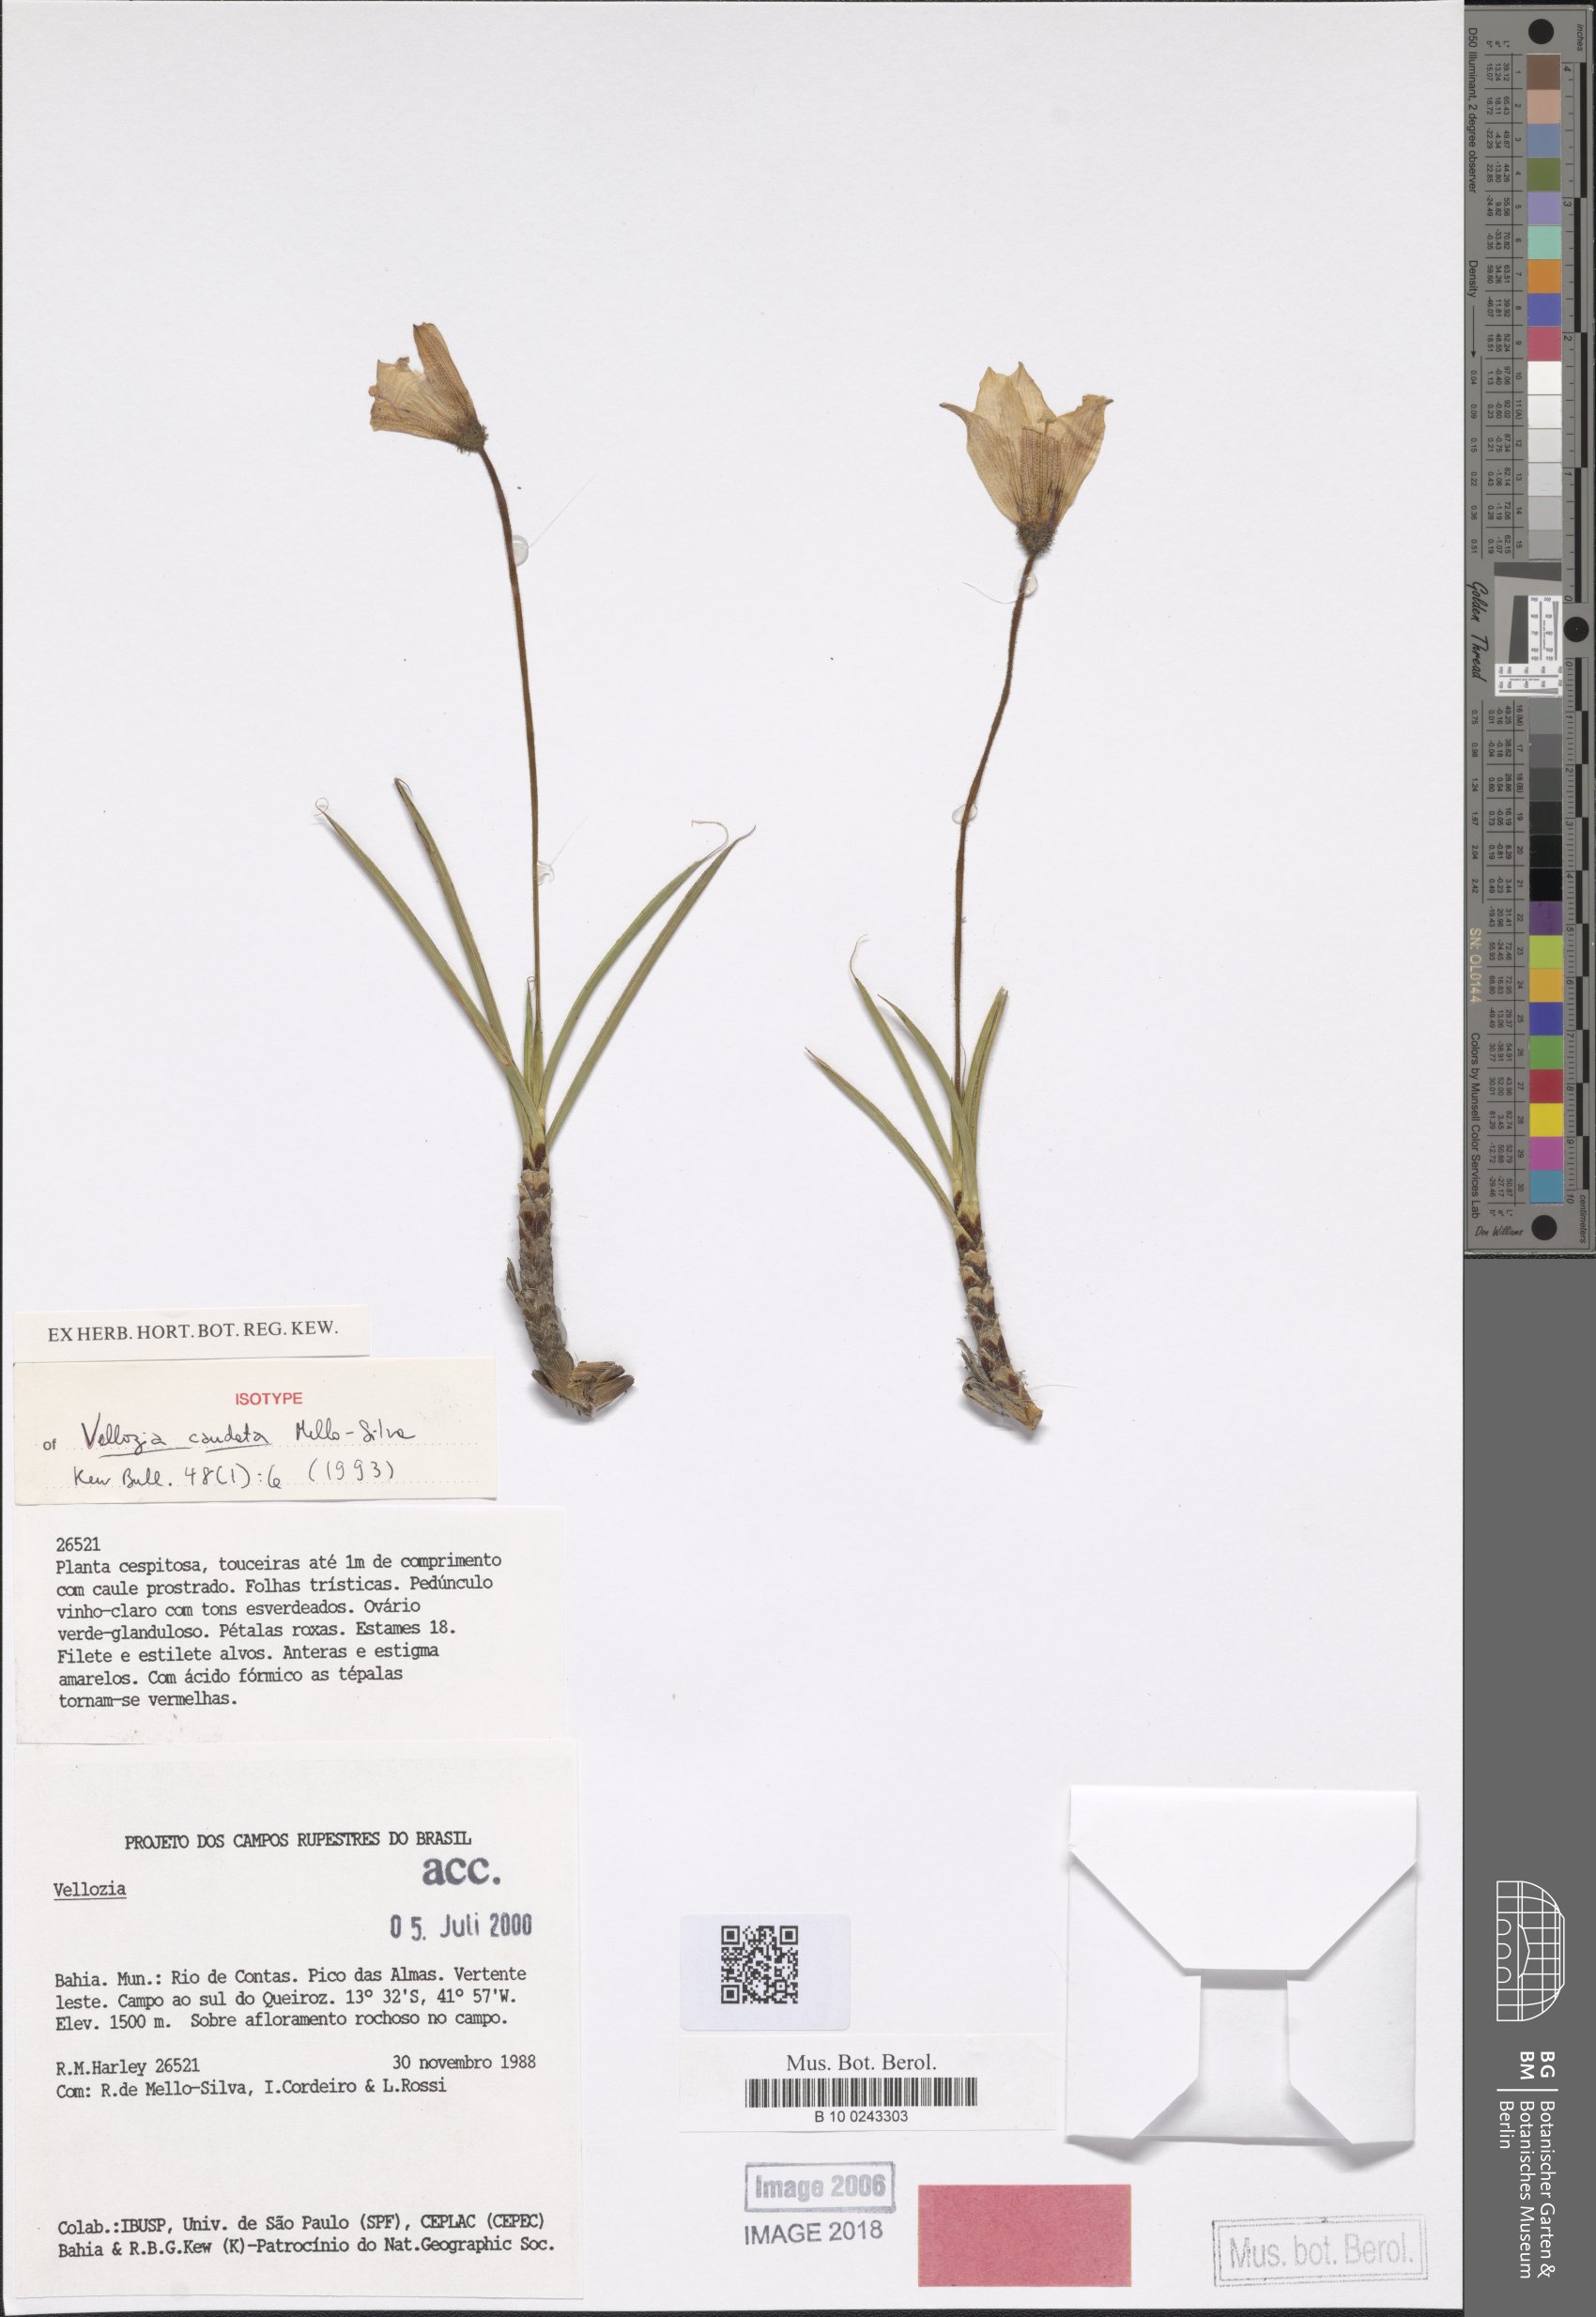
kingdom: Plantae
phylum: Tracheophyta
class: Liliopsida
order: Pandanales
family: Velloziaceae
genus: Vellozia
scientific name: Vellozia caudata
